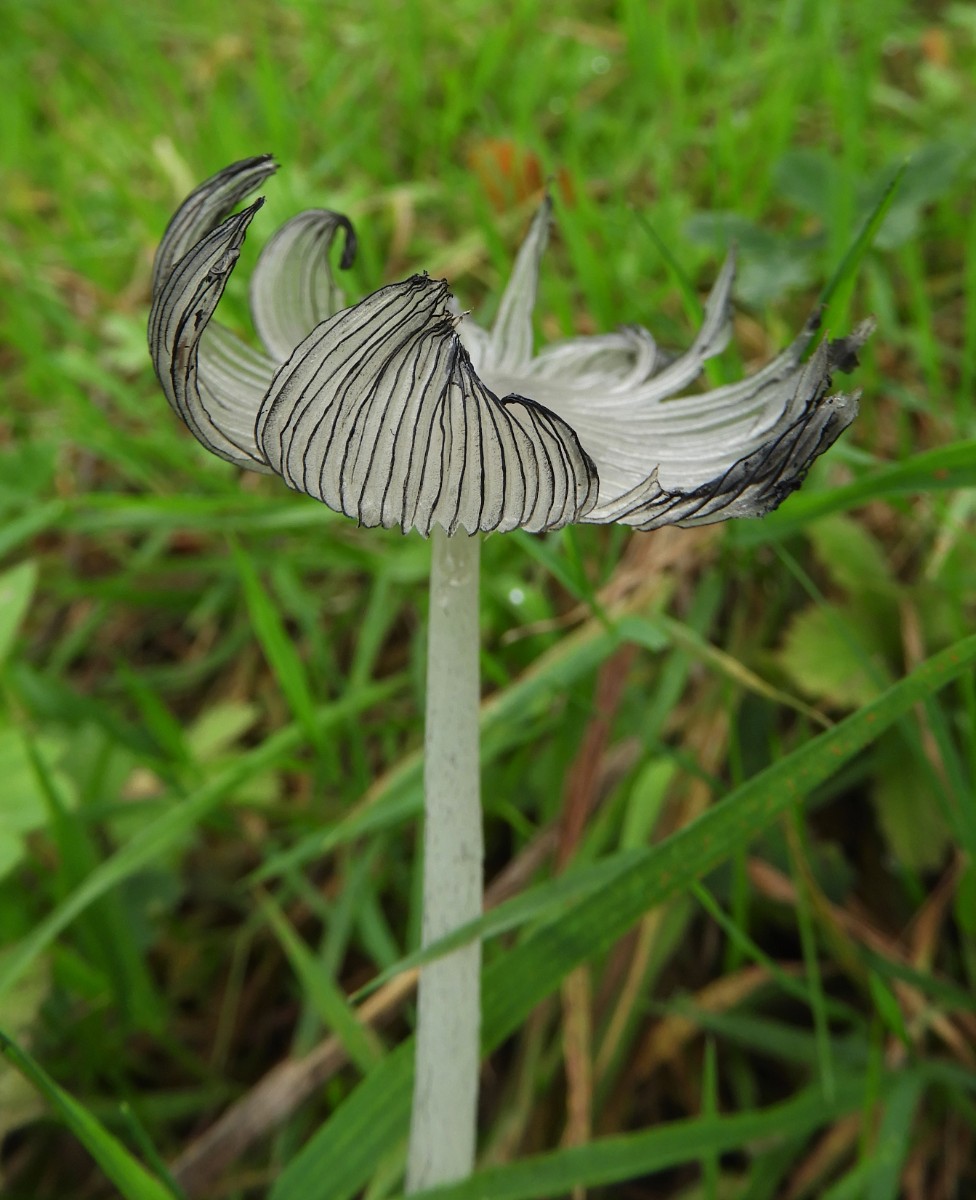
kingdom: Fungi
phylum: Basidiomycota
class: Agaricomycetes
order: Agaricales
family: Psathyrellaceae
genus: Coprinopsis
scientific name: Coprinopsis lagopus
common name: dunstokket blækhat
